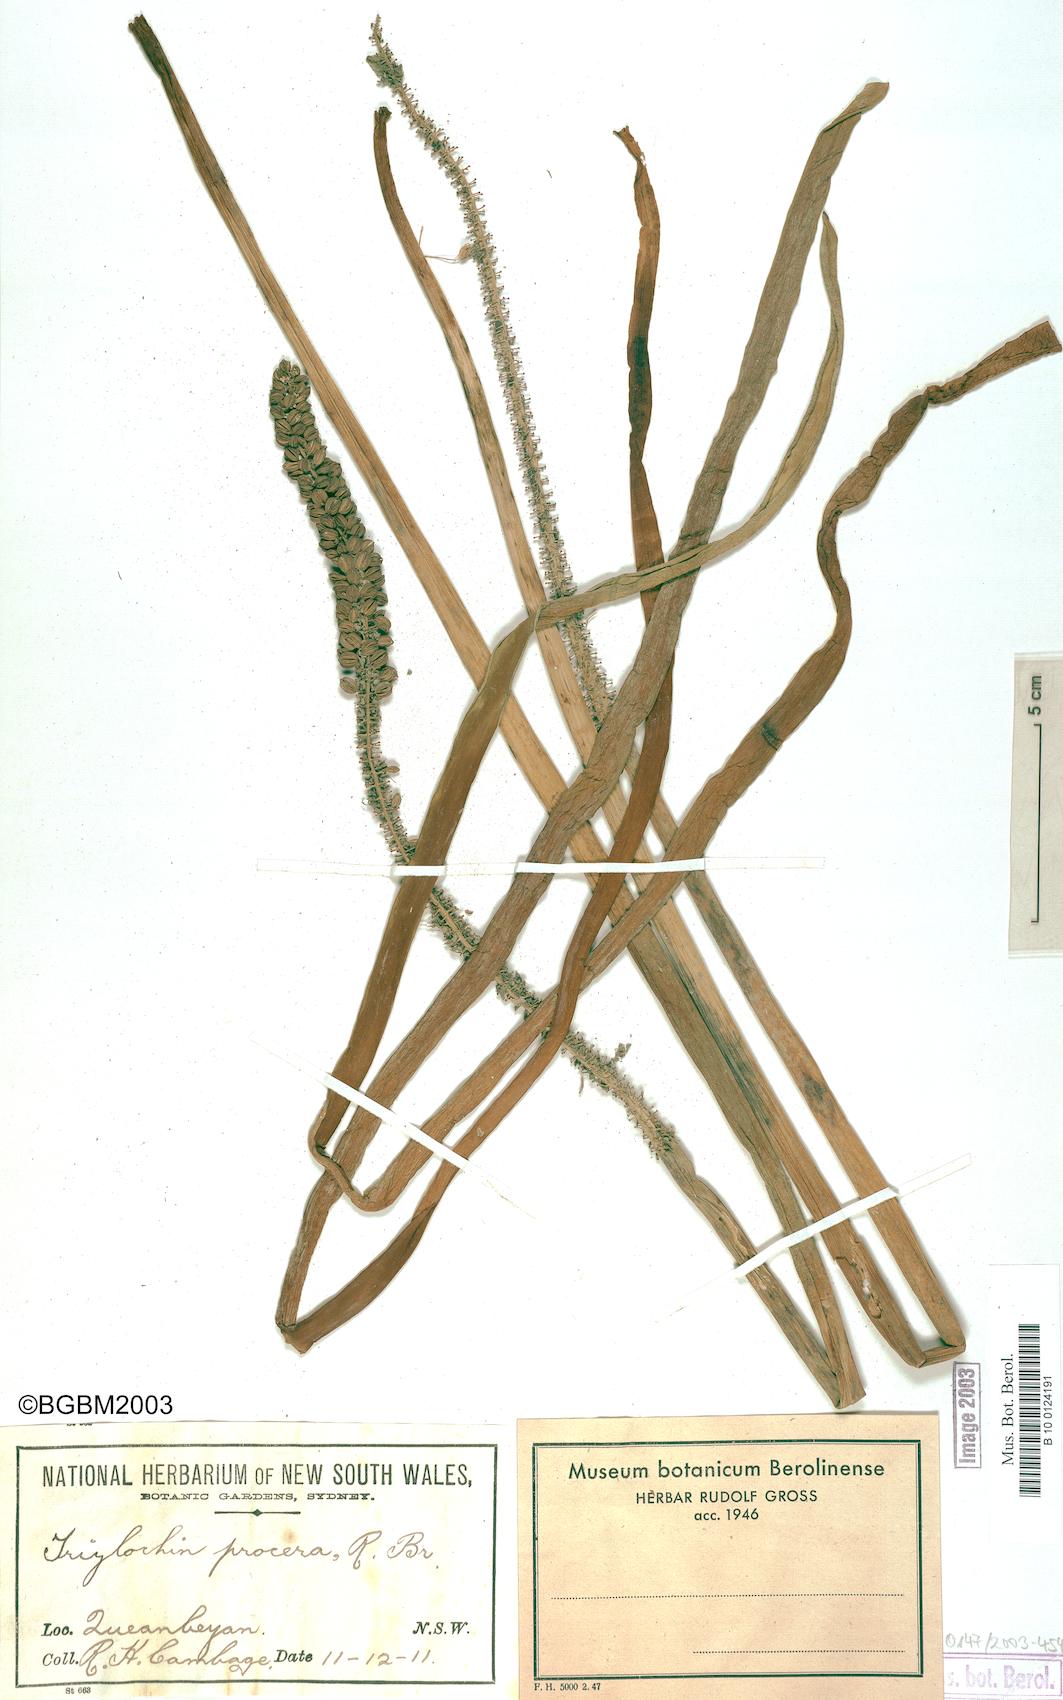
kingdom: Plantae
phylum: Tracheophyta
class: Liliopsida
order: Alismatales
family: Juncaginaceae
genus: Cycnogeton
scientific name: Cycnogeton procerum
